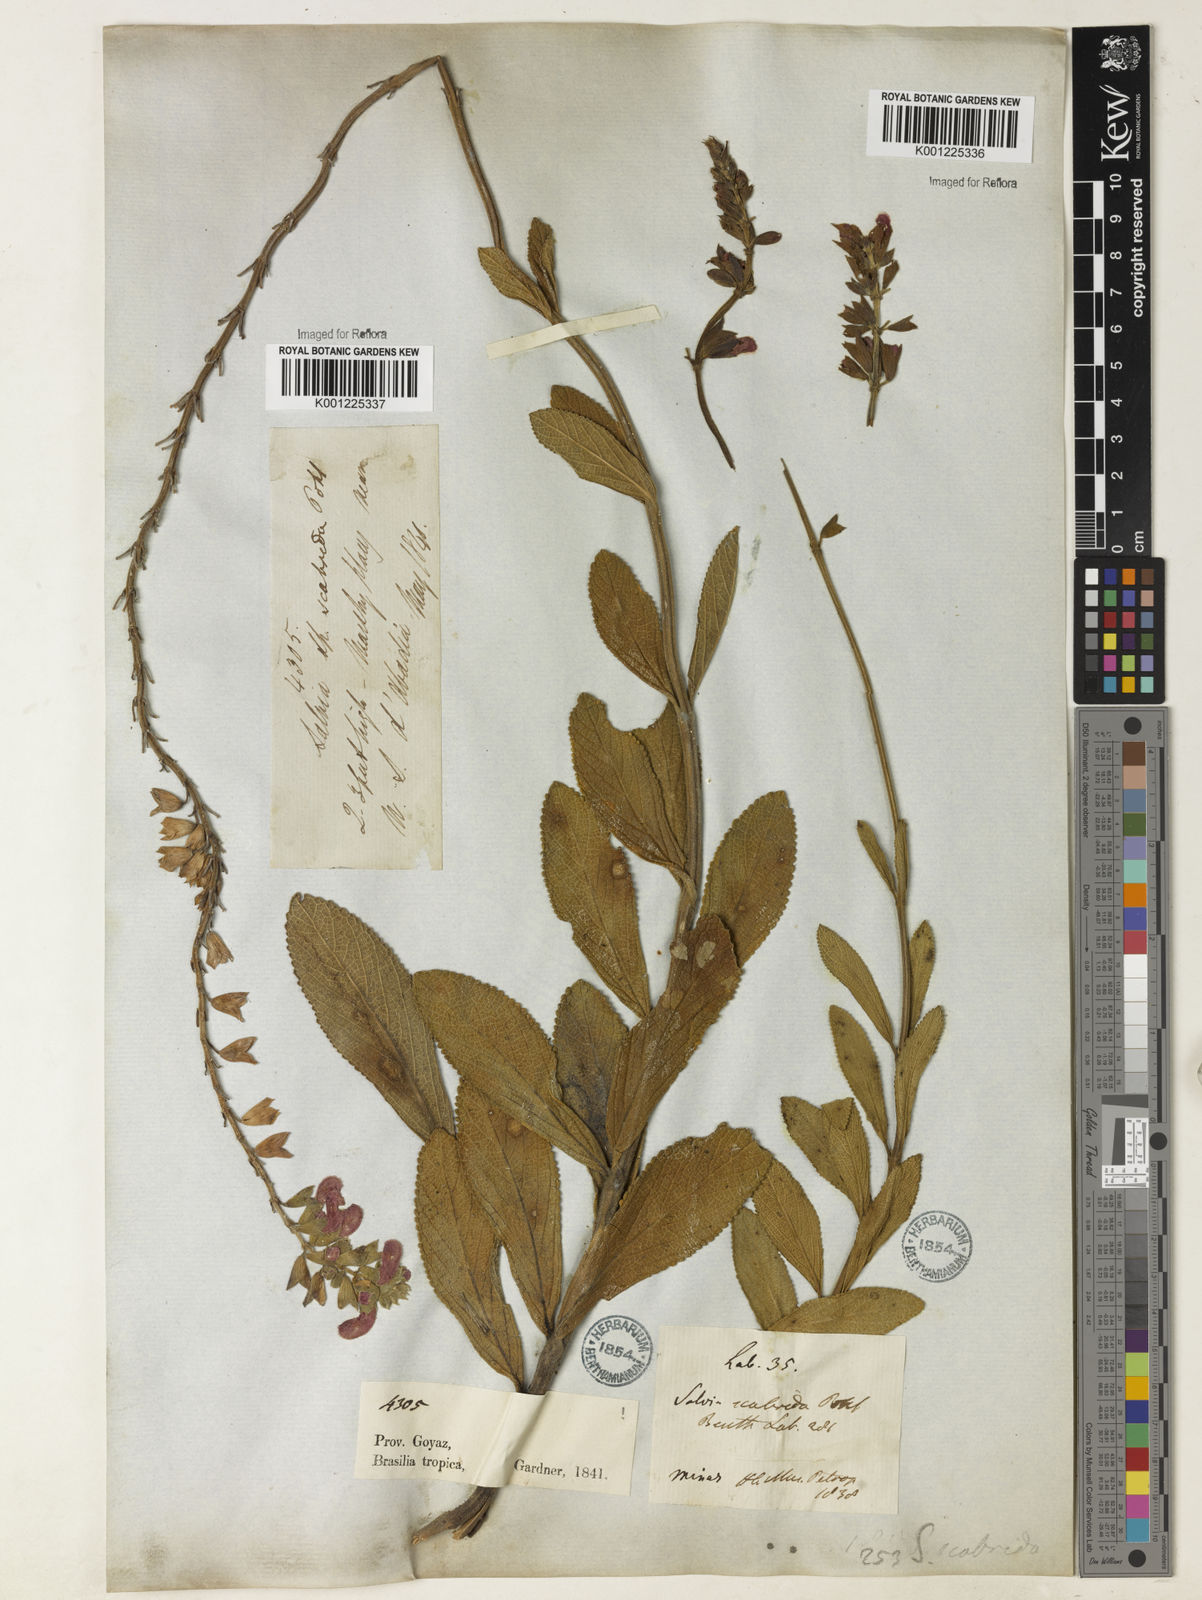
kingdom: Plantae
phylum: Tracheophyta
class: Magnoliopsida
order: Lamiales
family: Lamiaceae
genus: Salvia
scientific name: Salvia scabrida
